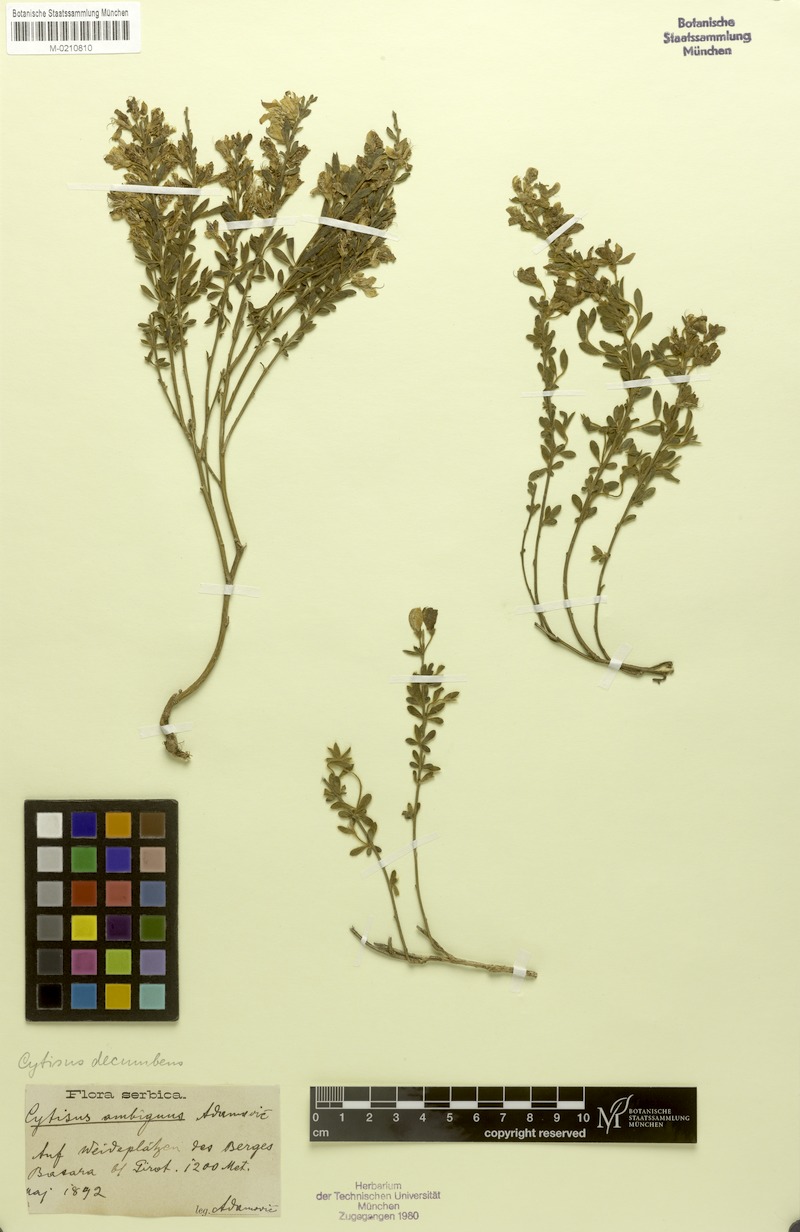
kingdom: Plantae
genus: Corothamus
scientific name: Corothamus rectipilosus
